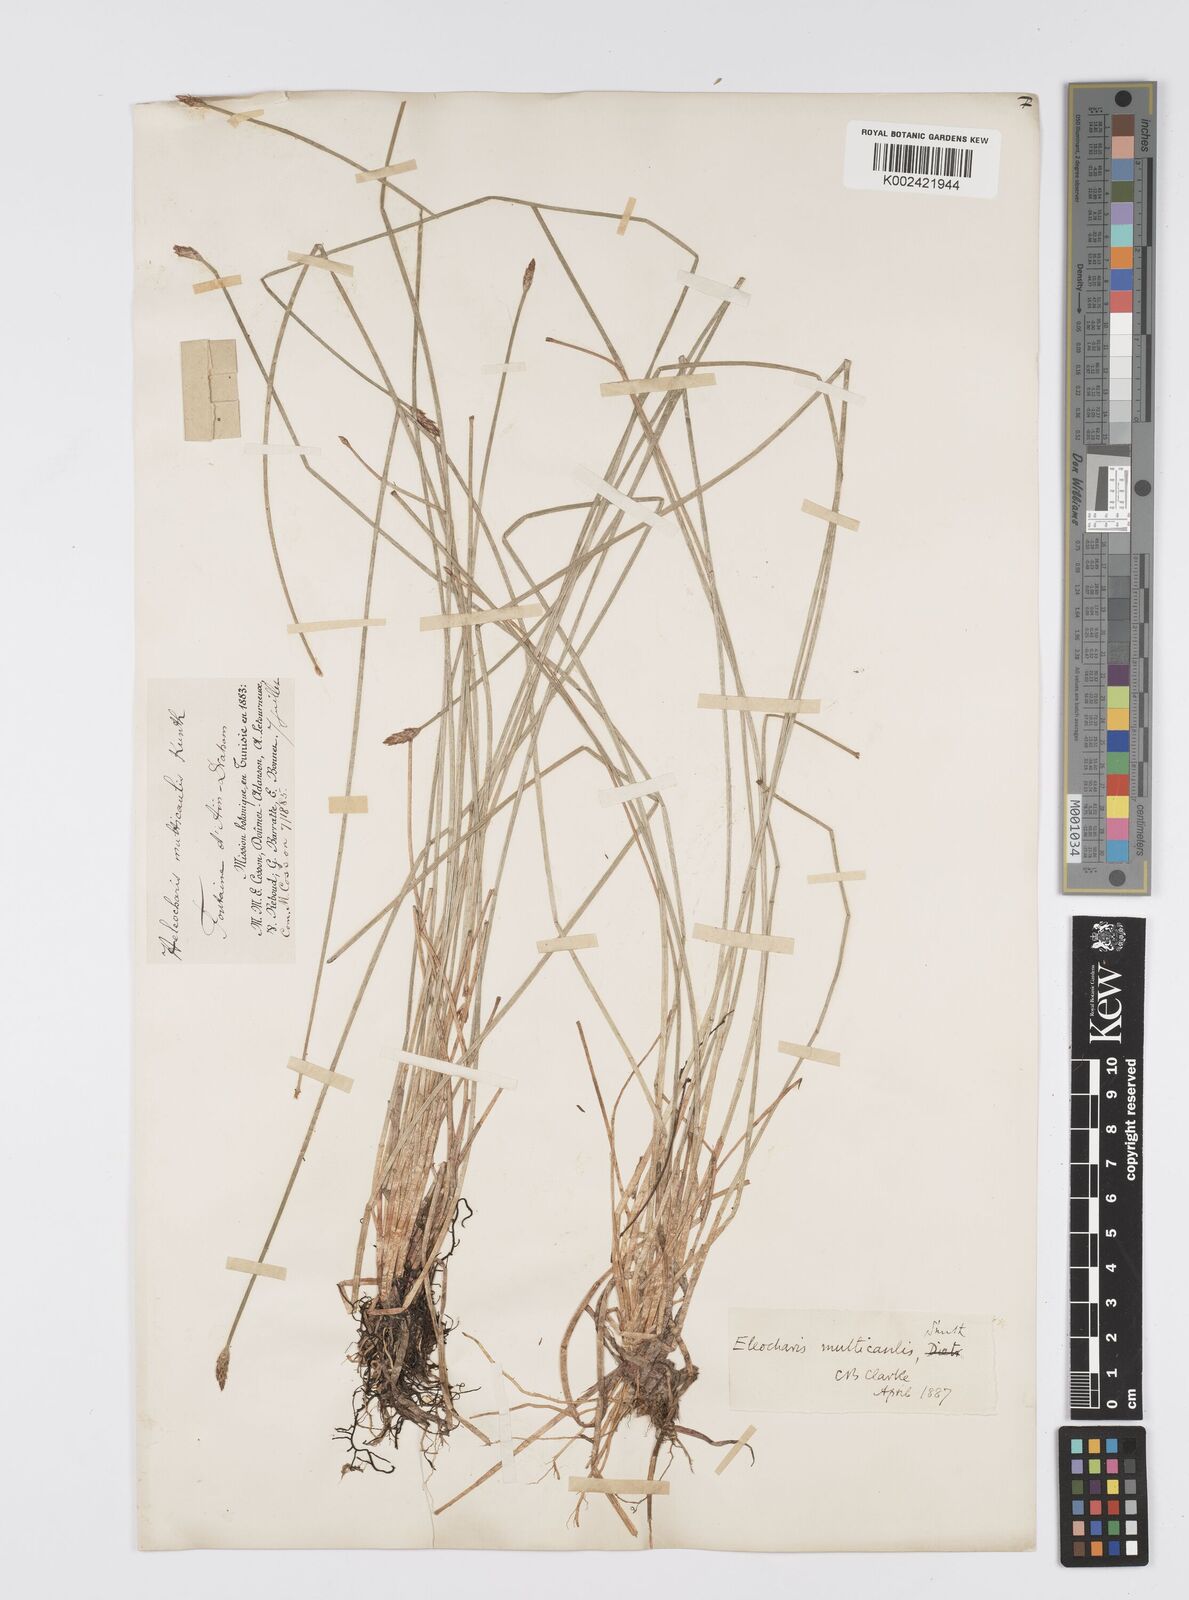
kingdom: Plantae
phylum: Tracheophyta
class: Liliopsida
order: Poales
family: Cyperaceae
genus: Eleocharis
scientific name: Eleocharis multicaulis
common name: Many-stalked spike-rush
